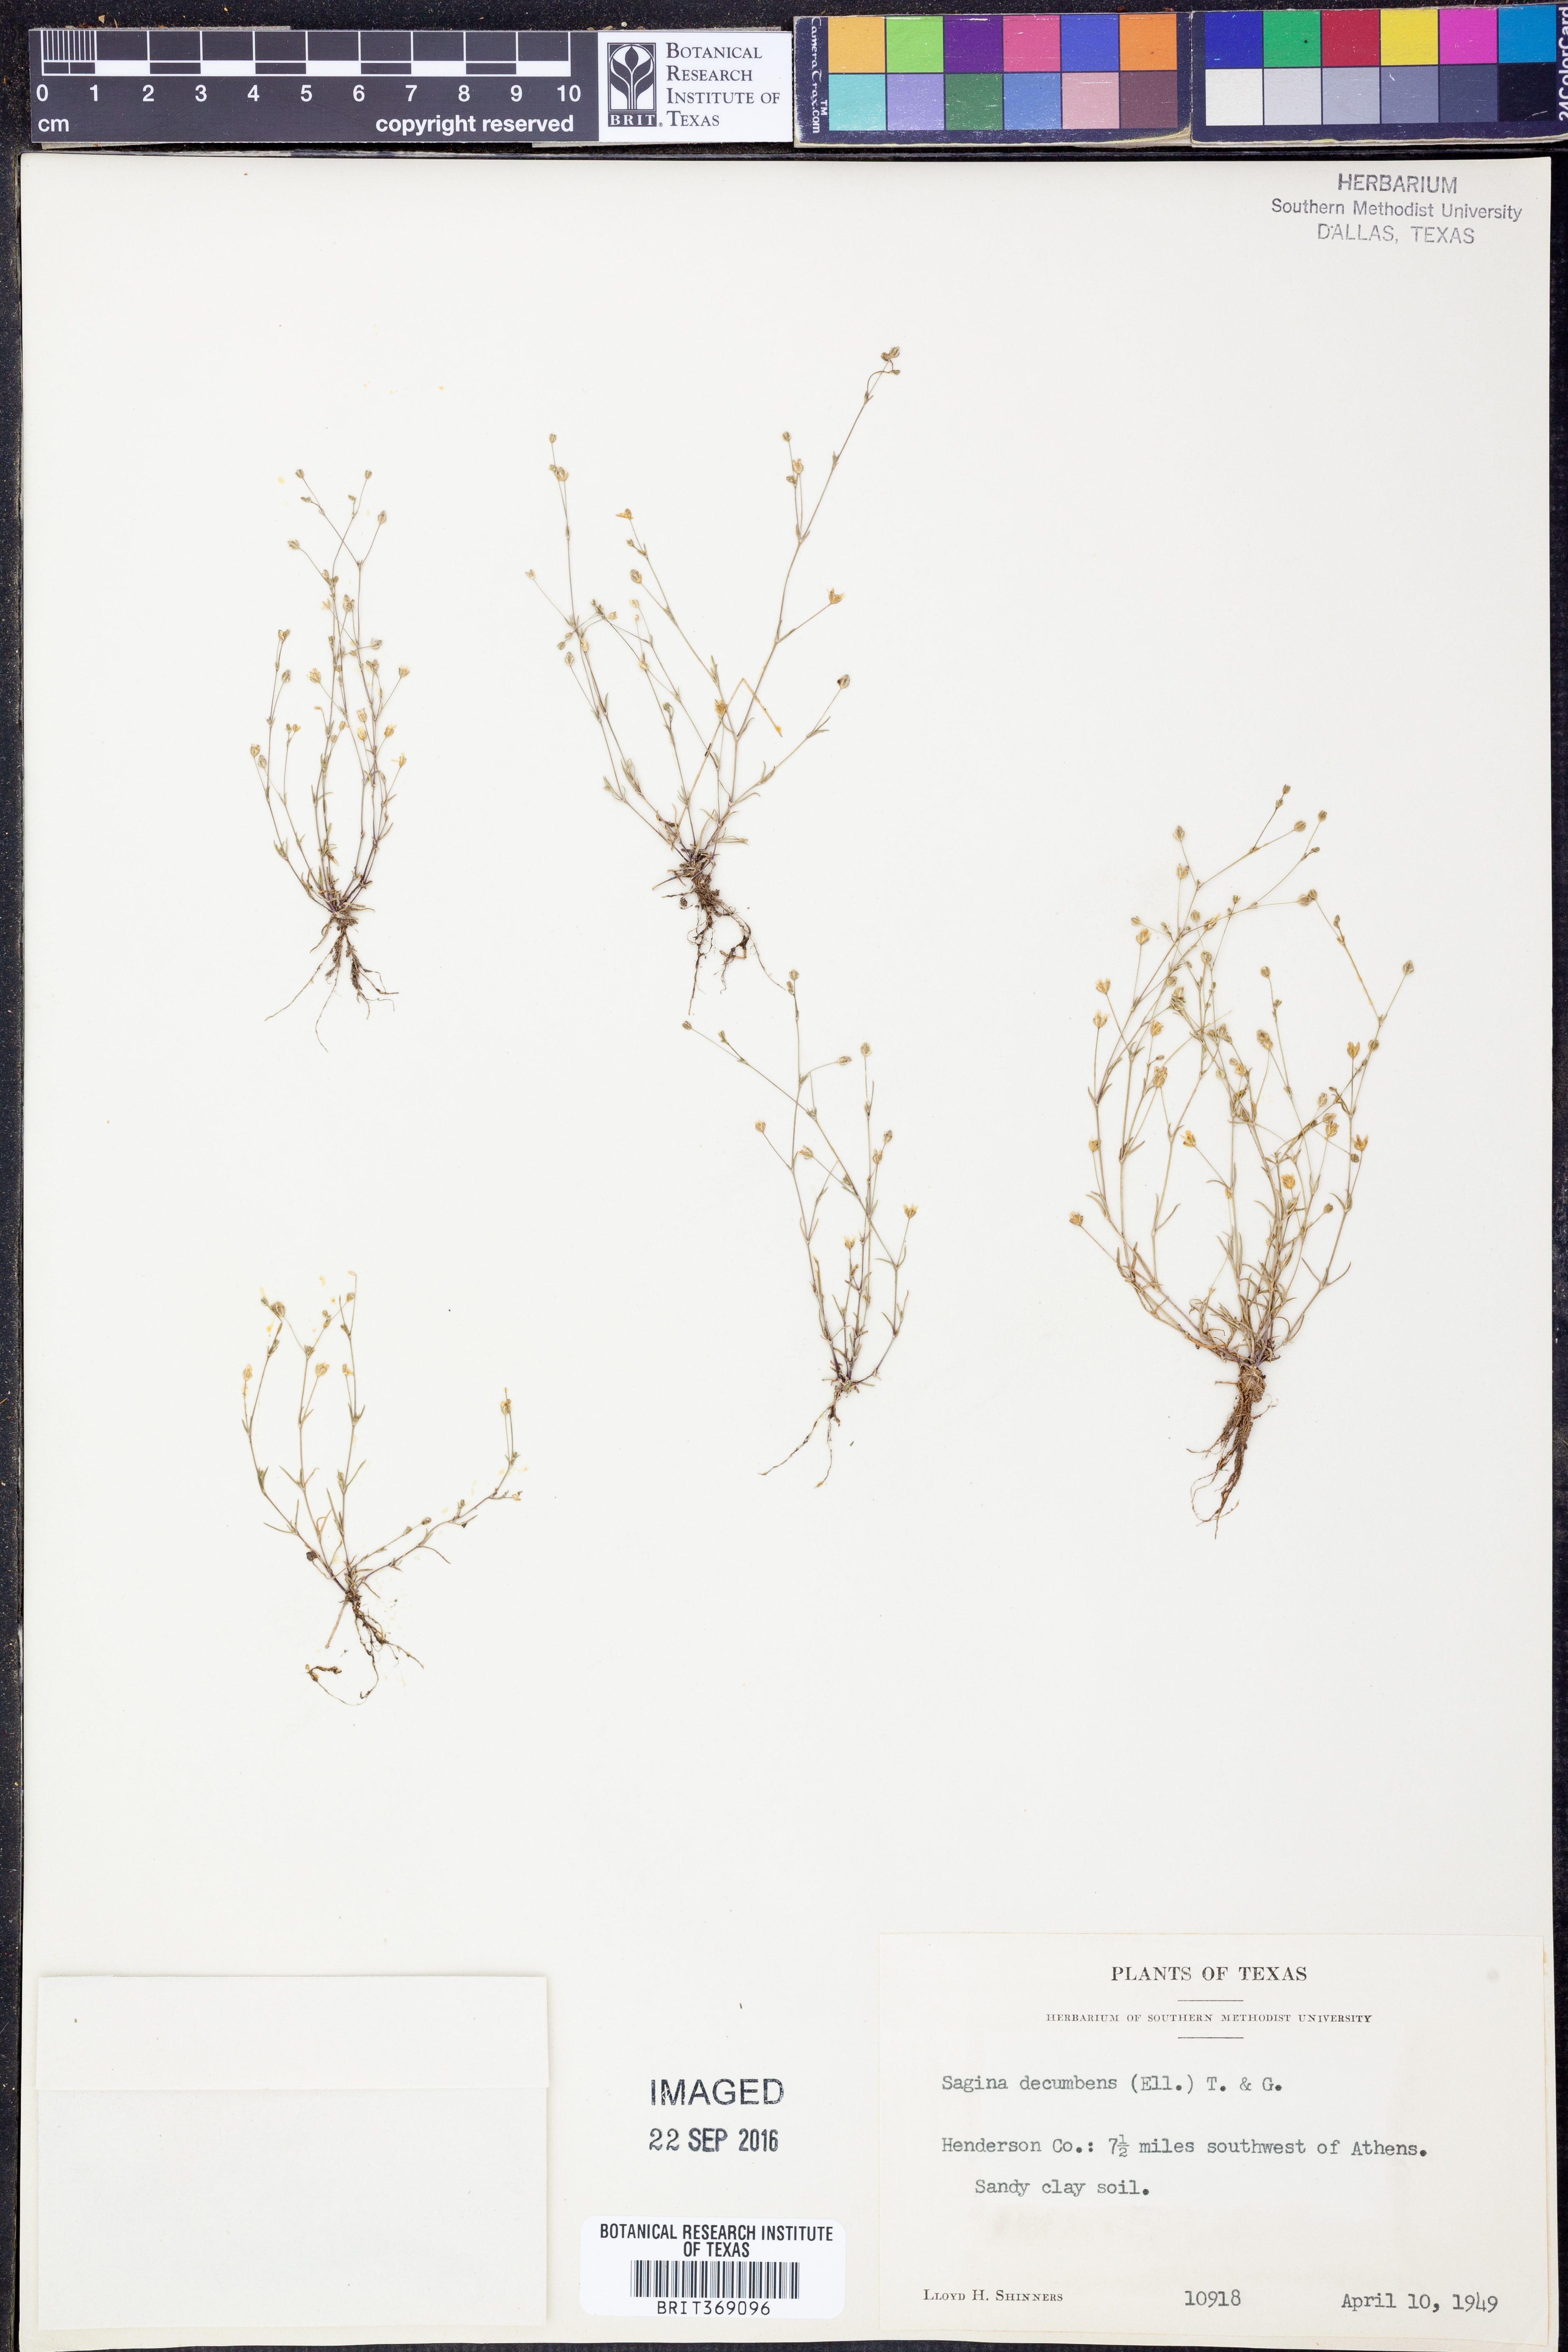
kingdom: Plantae
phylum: Tracheophyta
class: Magnoliopsida
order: Caryophyllales
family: Caryophyllaceae
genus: Sagina
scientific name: Sagina decumbens
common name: Decumbent pearlwort
